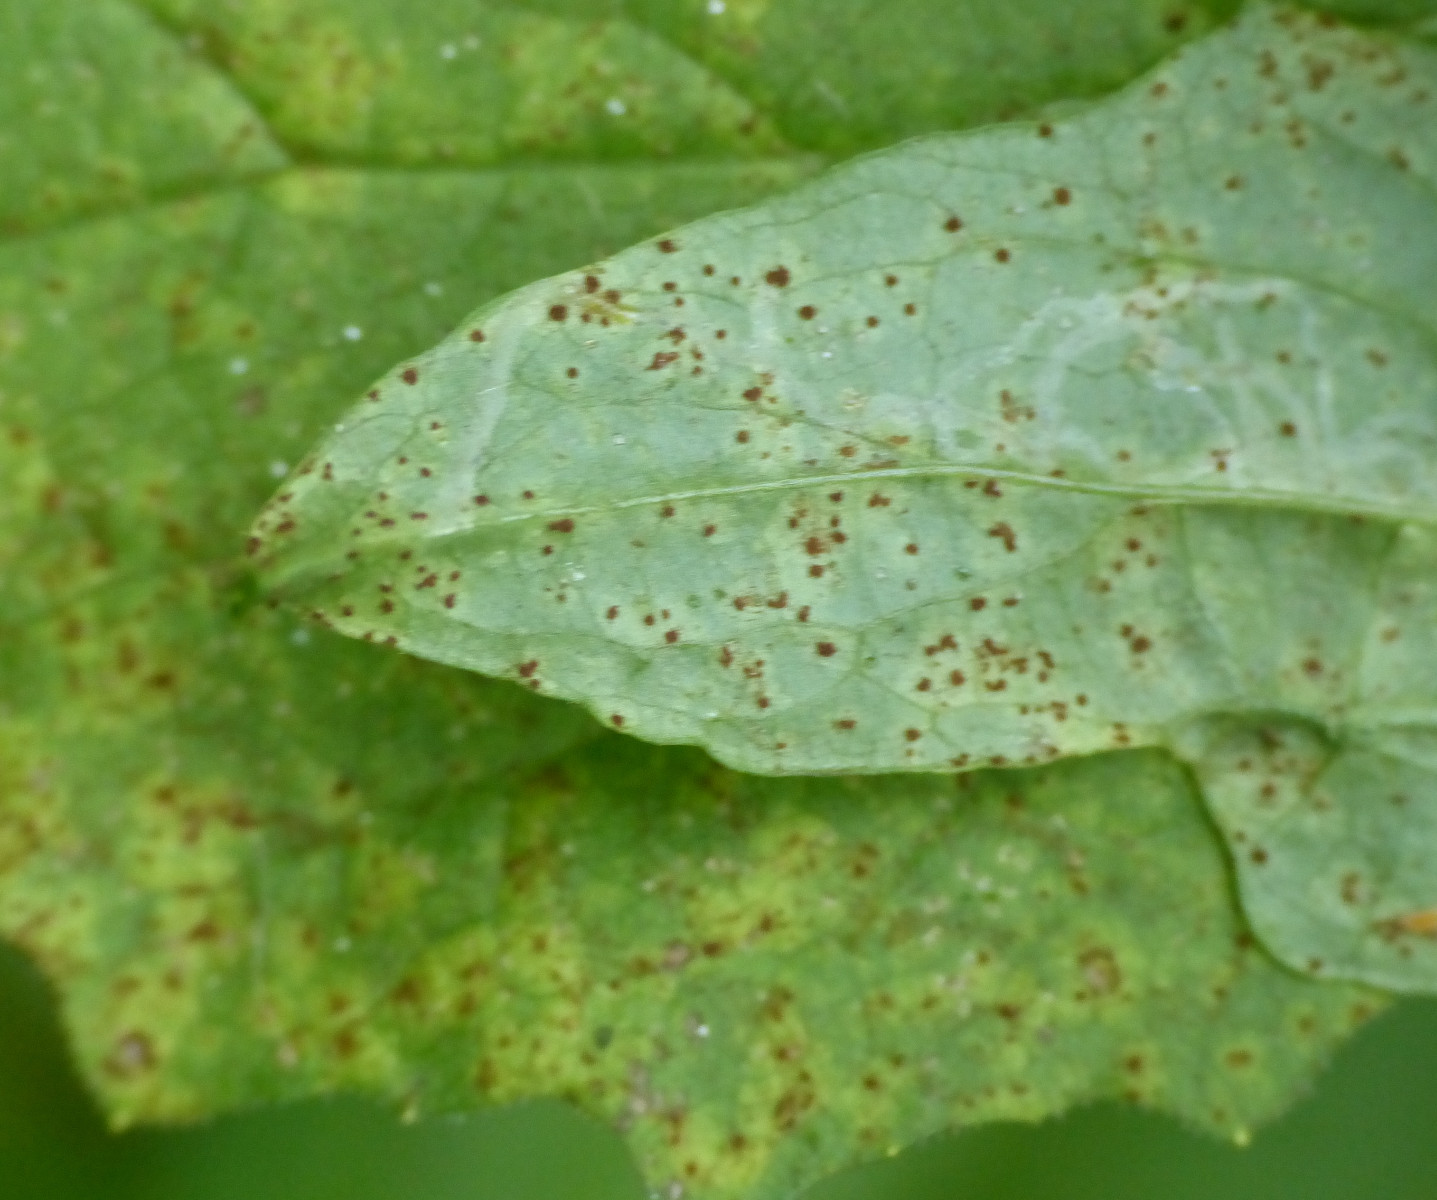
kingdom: Fungi
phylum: Basidiomycota
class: Pucciniomycetes
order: Pucciniales
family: Pucciniaceae
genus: Puccinia
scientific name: Puccinia lapsanae
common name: Nipplewort rust
